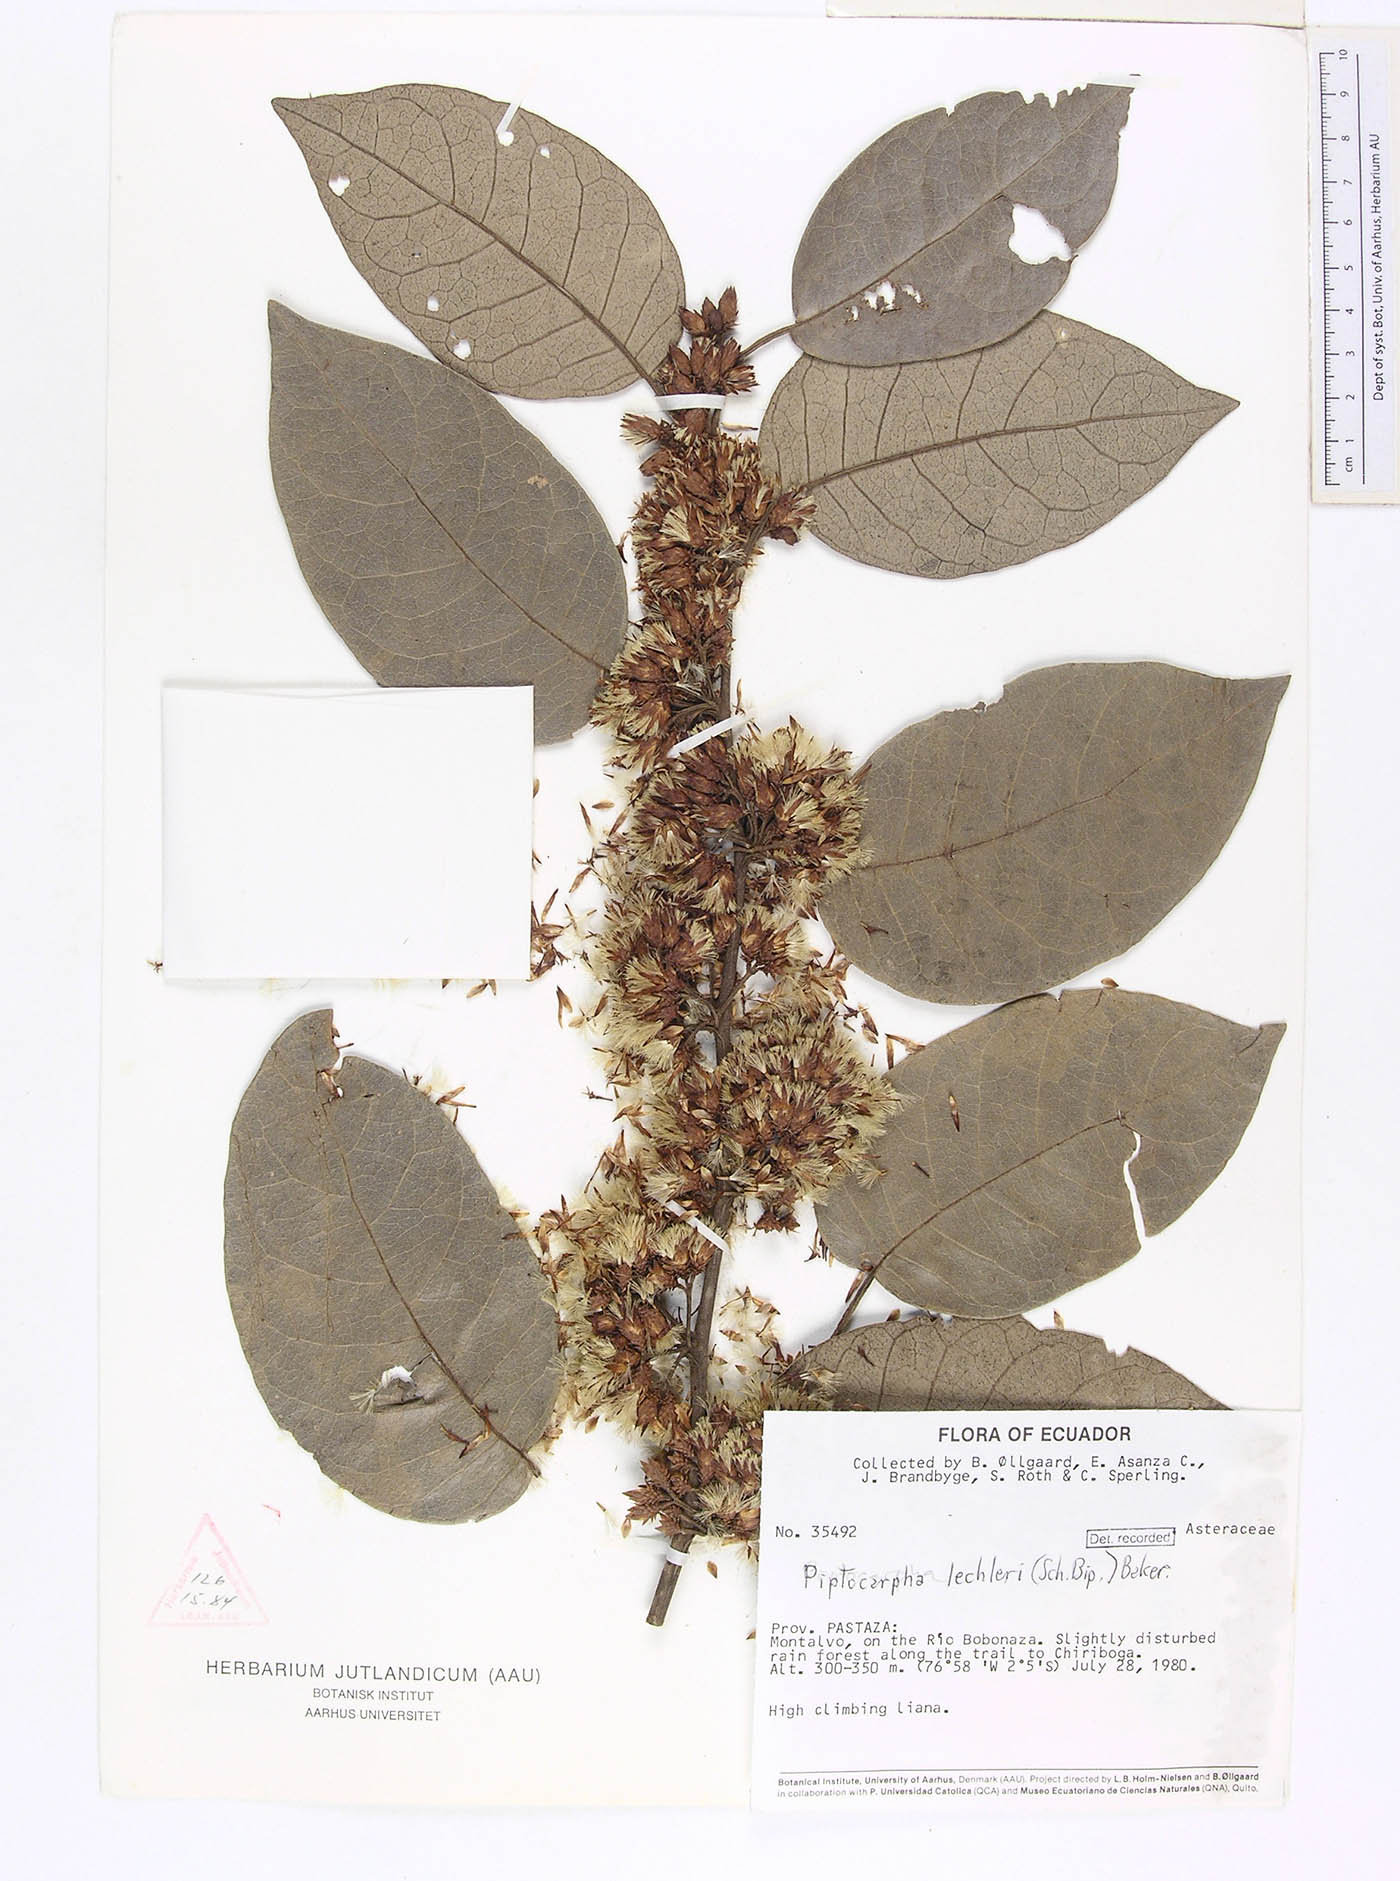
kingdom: Plantae
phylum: Tracheophyta
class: Magnoliopsida
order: Asterales
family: Asteraceae
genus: Piptocarpha
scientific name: Piptocarpha lechleri
